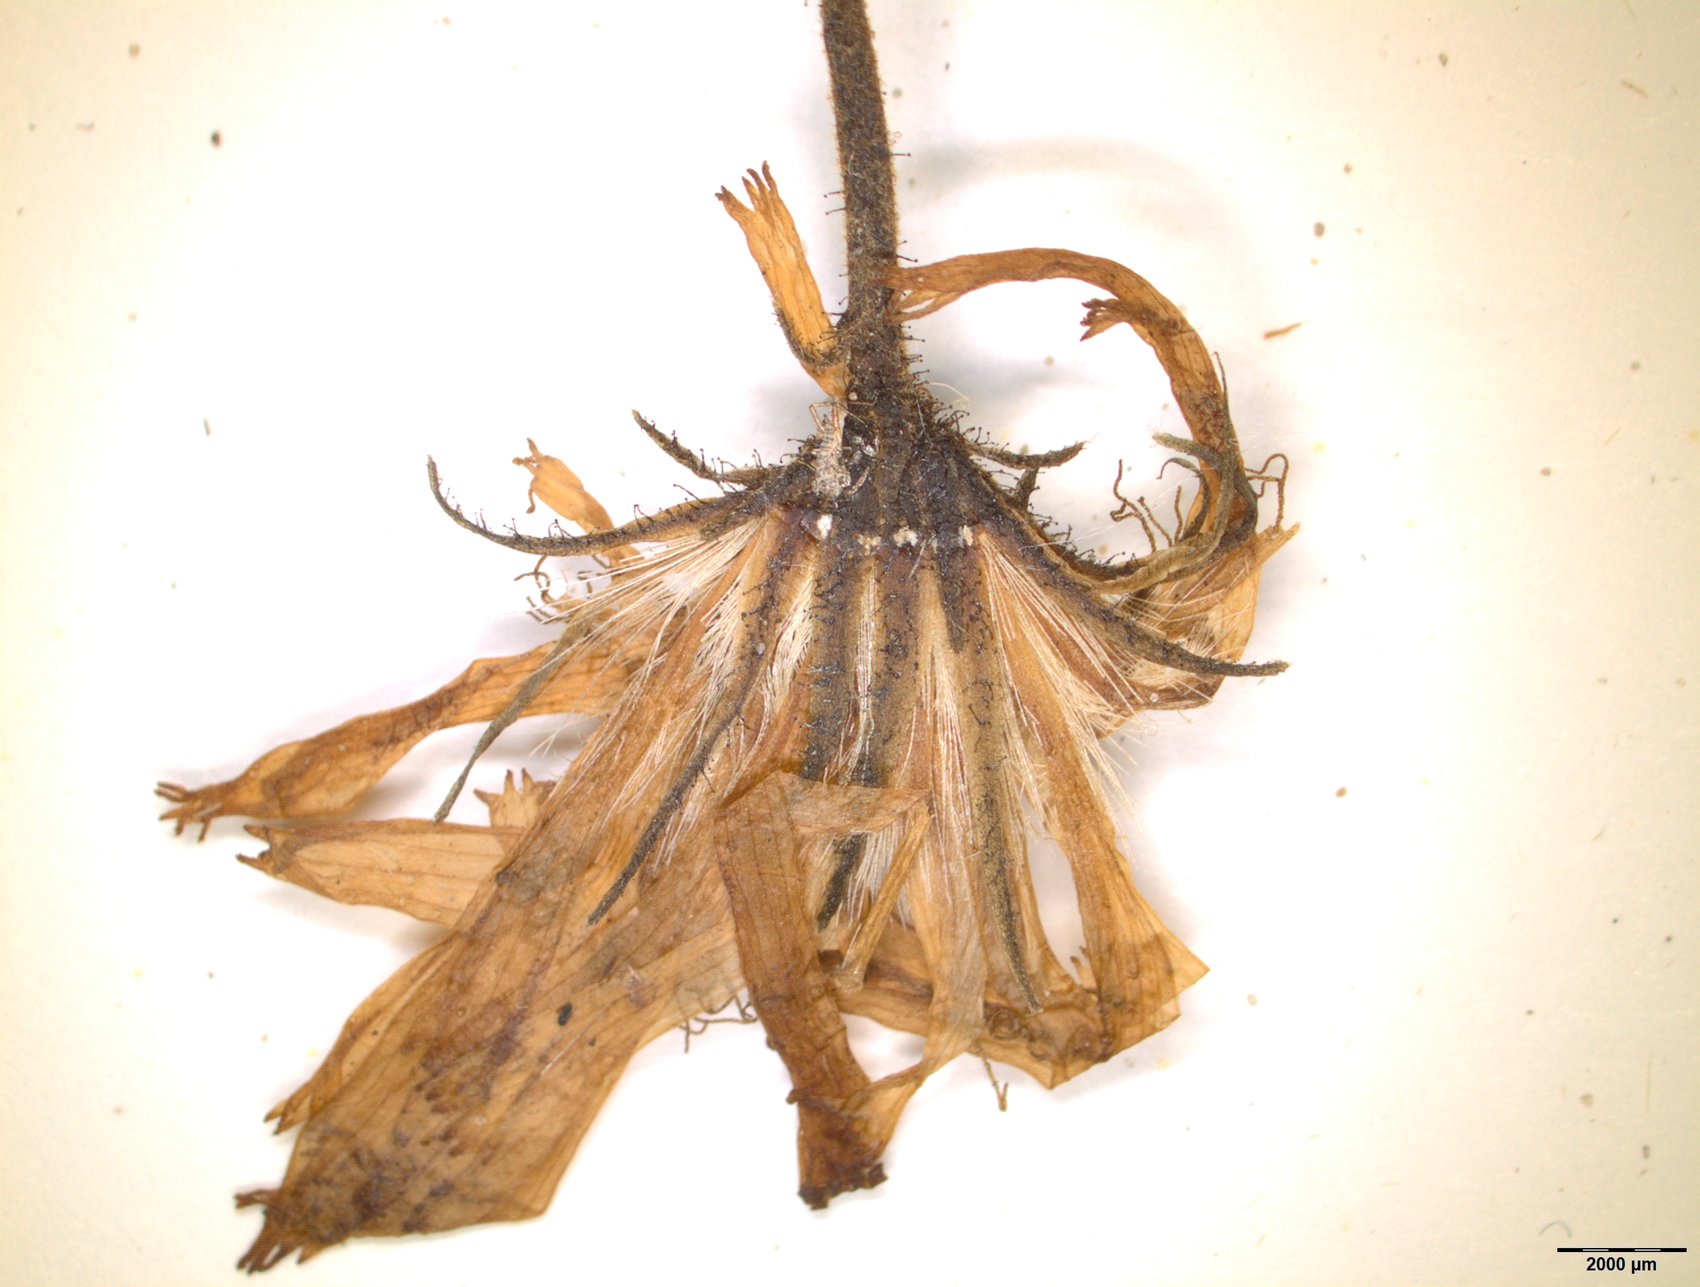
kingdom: Plantae
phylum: Tracheophyta
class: Magnoliopsida
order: Asterales
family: Asteraceae
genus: Hieracium
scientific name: Hieracium murorum
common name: Wall hawkweed
